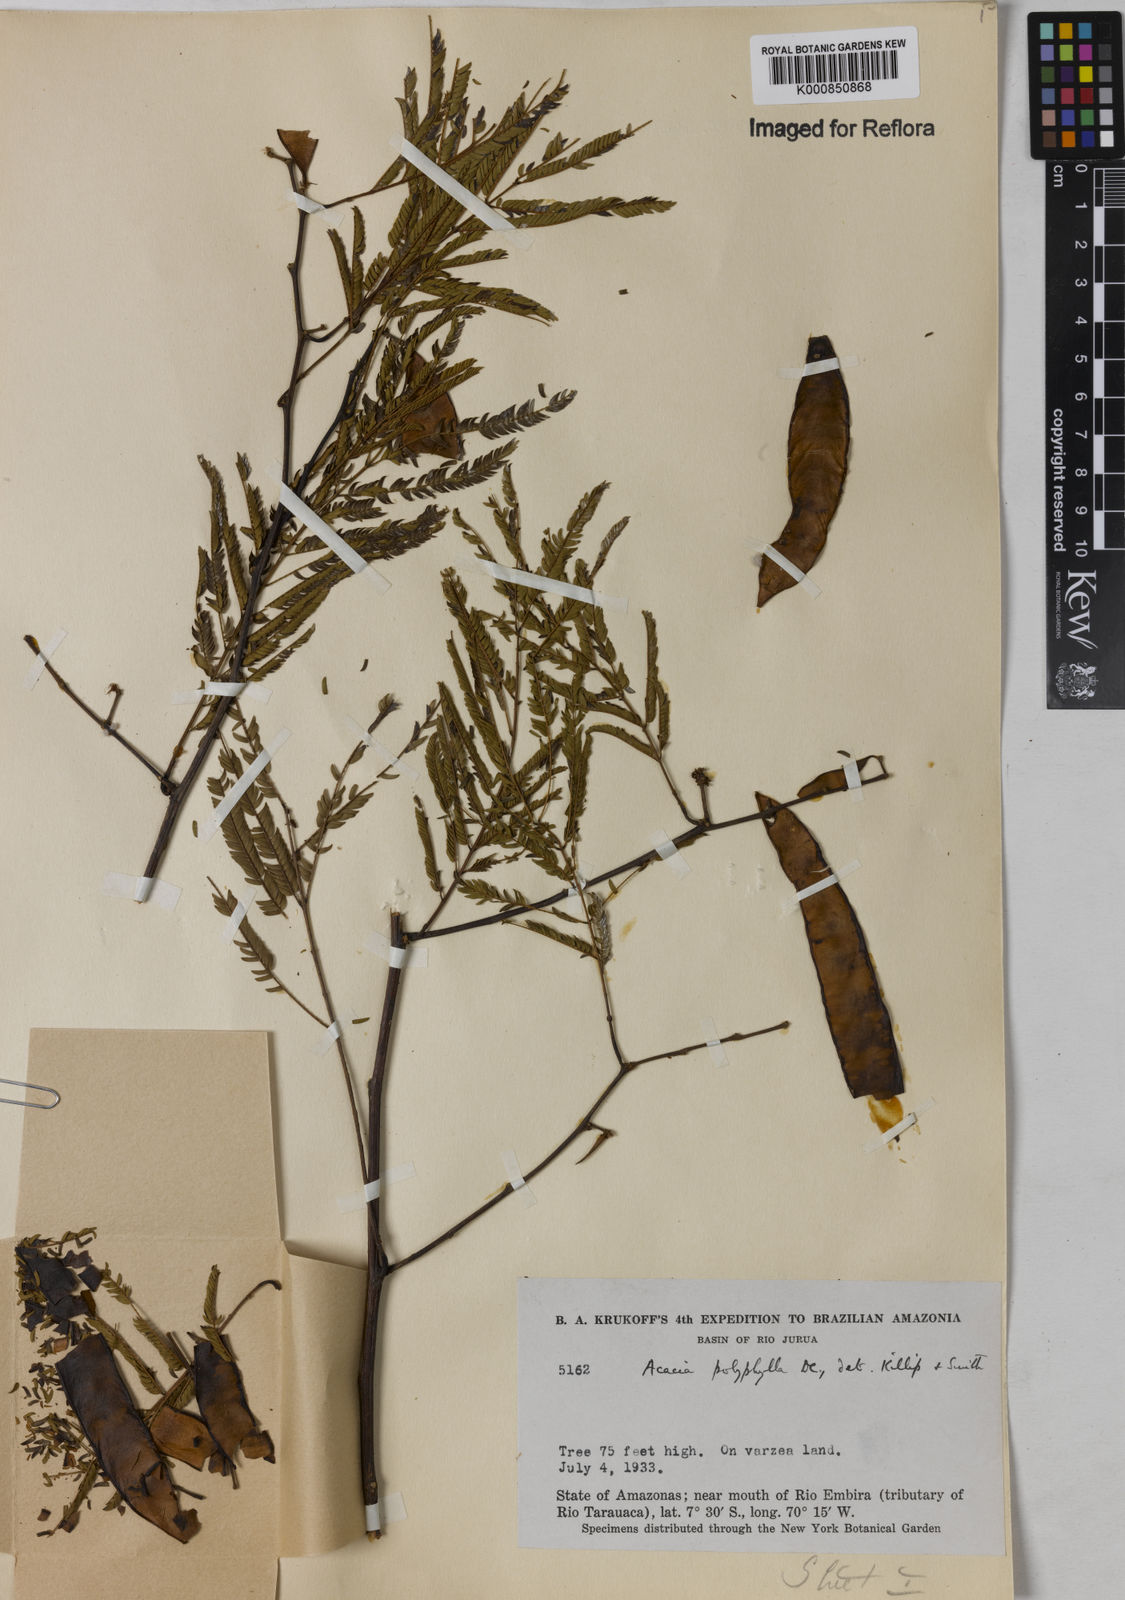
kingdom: Plantae
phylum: Tracheophyta
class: Magnoliopsida
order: Fabales
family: Fabaceae
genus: Senegalia
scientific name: Senegalia polyphylla
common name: White-tamarind
